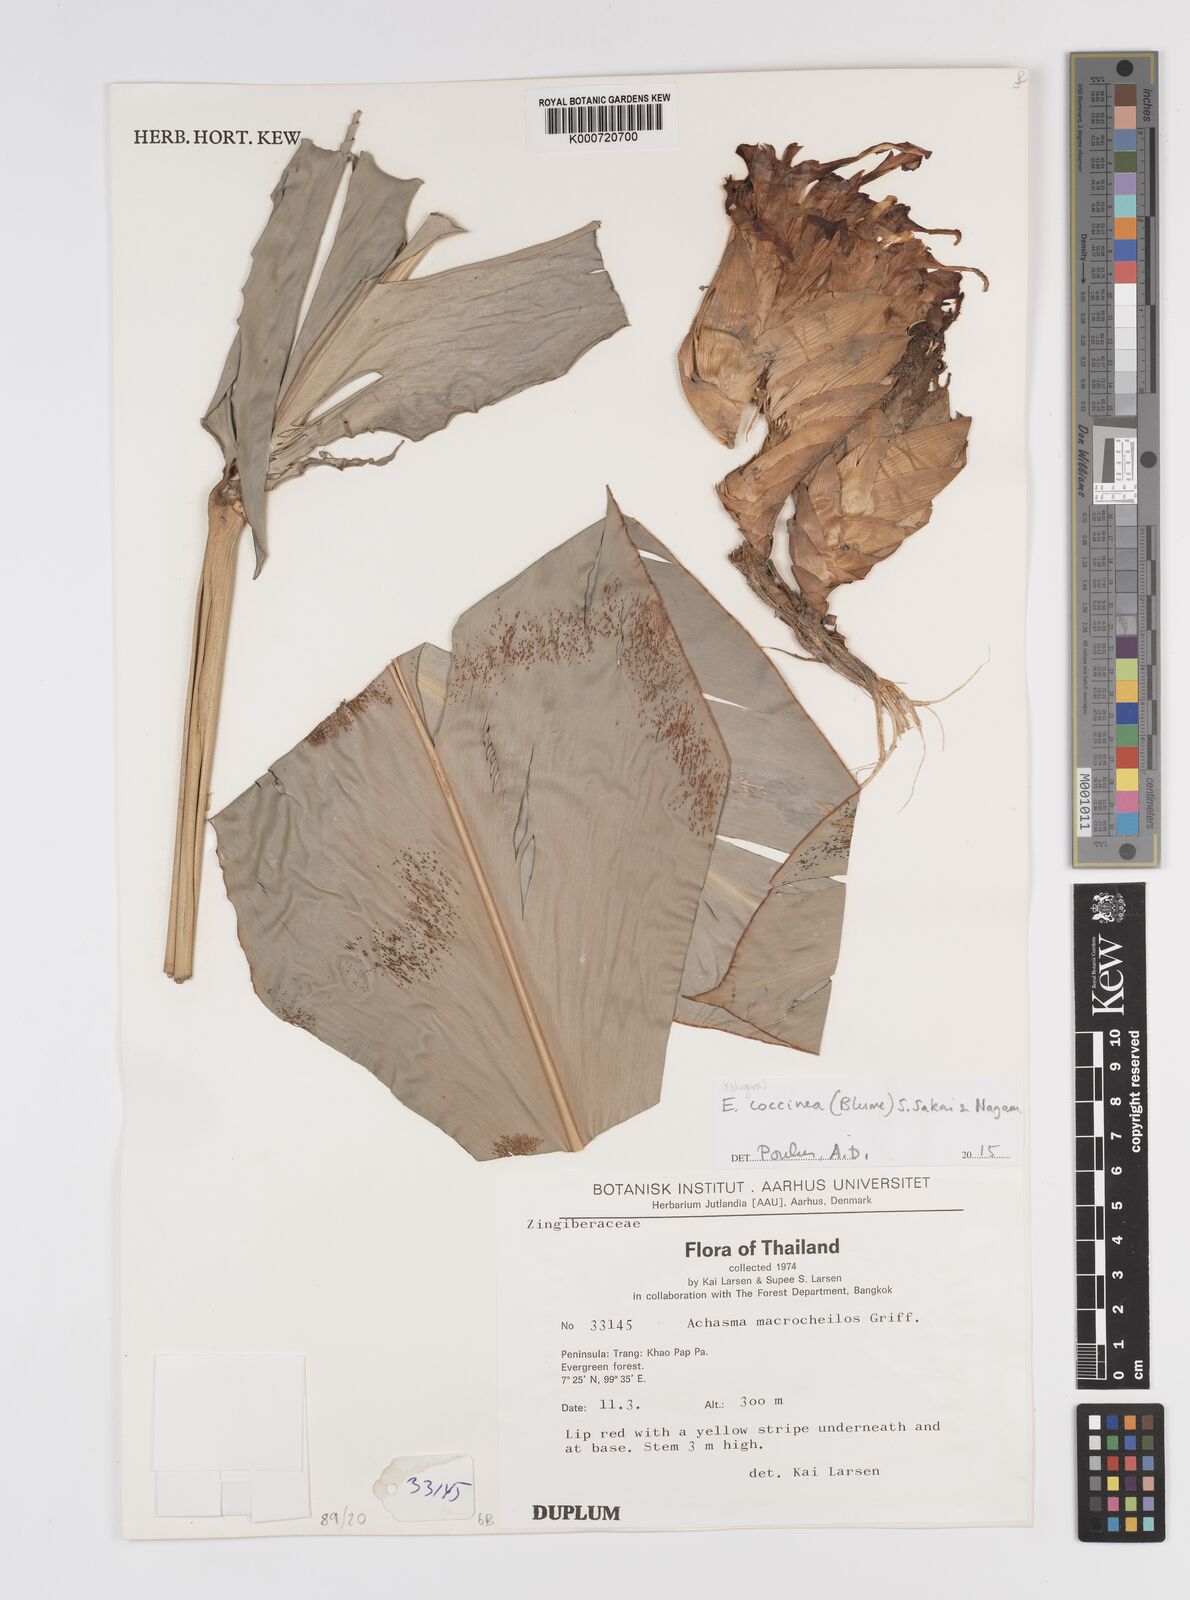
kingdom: Plantae
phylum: Tracheophyta
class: Liliopsida
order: Zingiberales
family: Zingiberaceae
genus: Etlingera
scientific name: Etlingera coccinea
